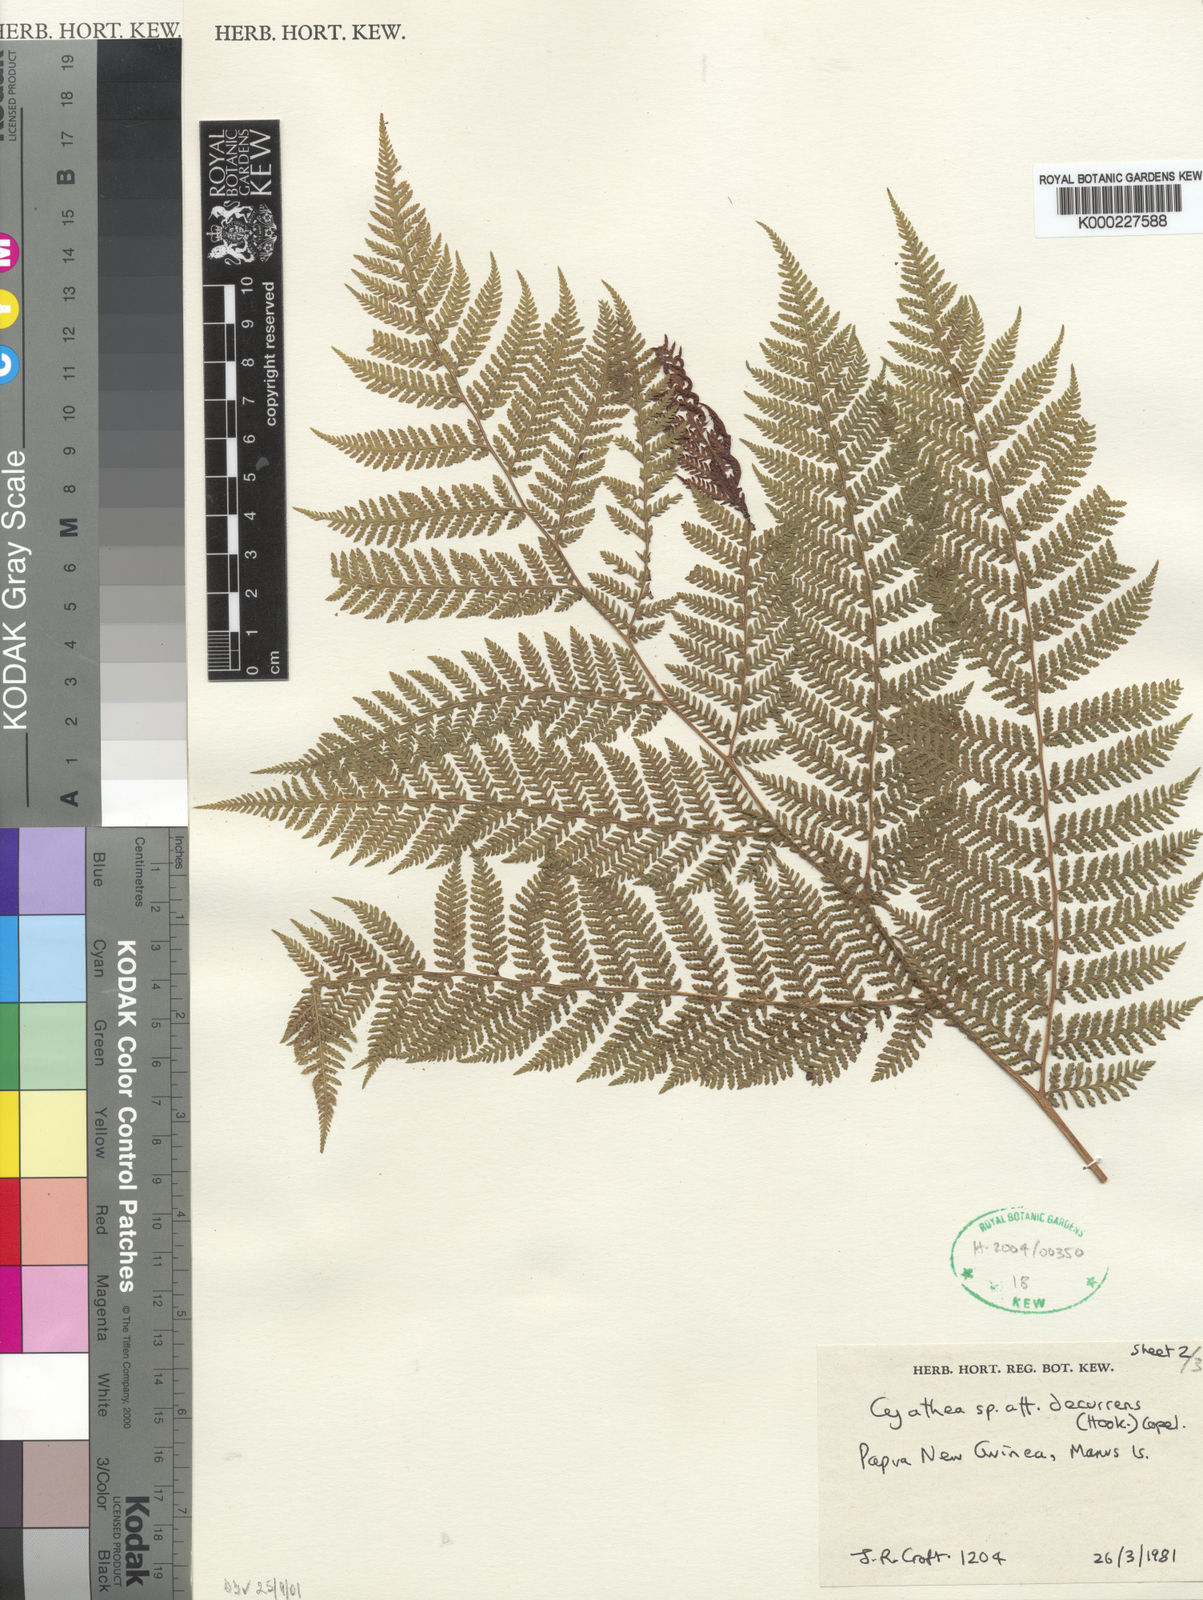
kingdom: Plantae
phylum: Tracheophyta
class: Polypodiopsida
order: Cyatheales
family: Cyatheaceae
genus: Cyathea
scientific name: Cyathea croftii
